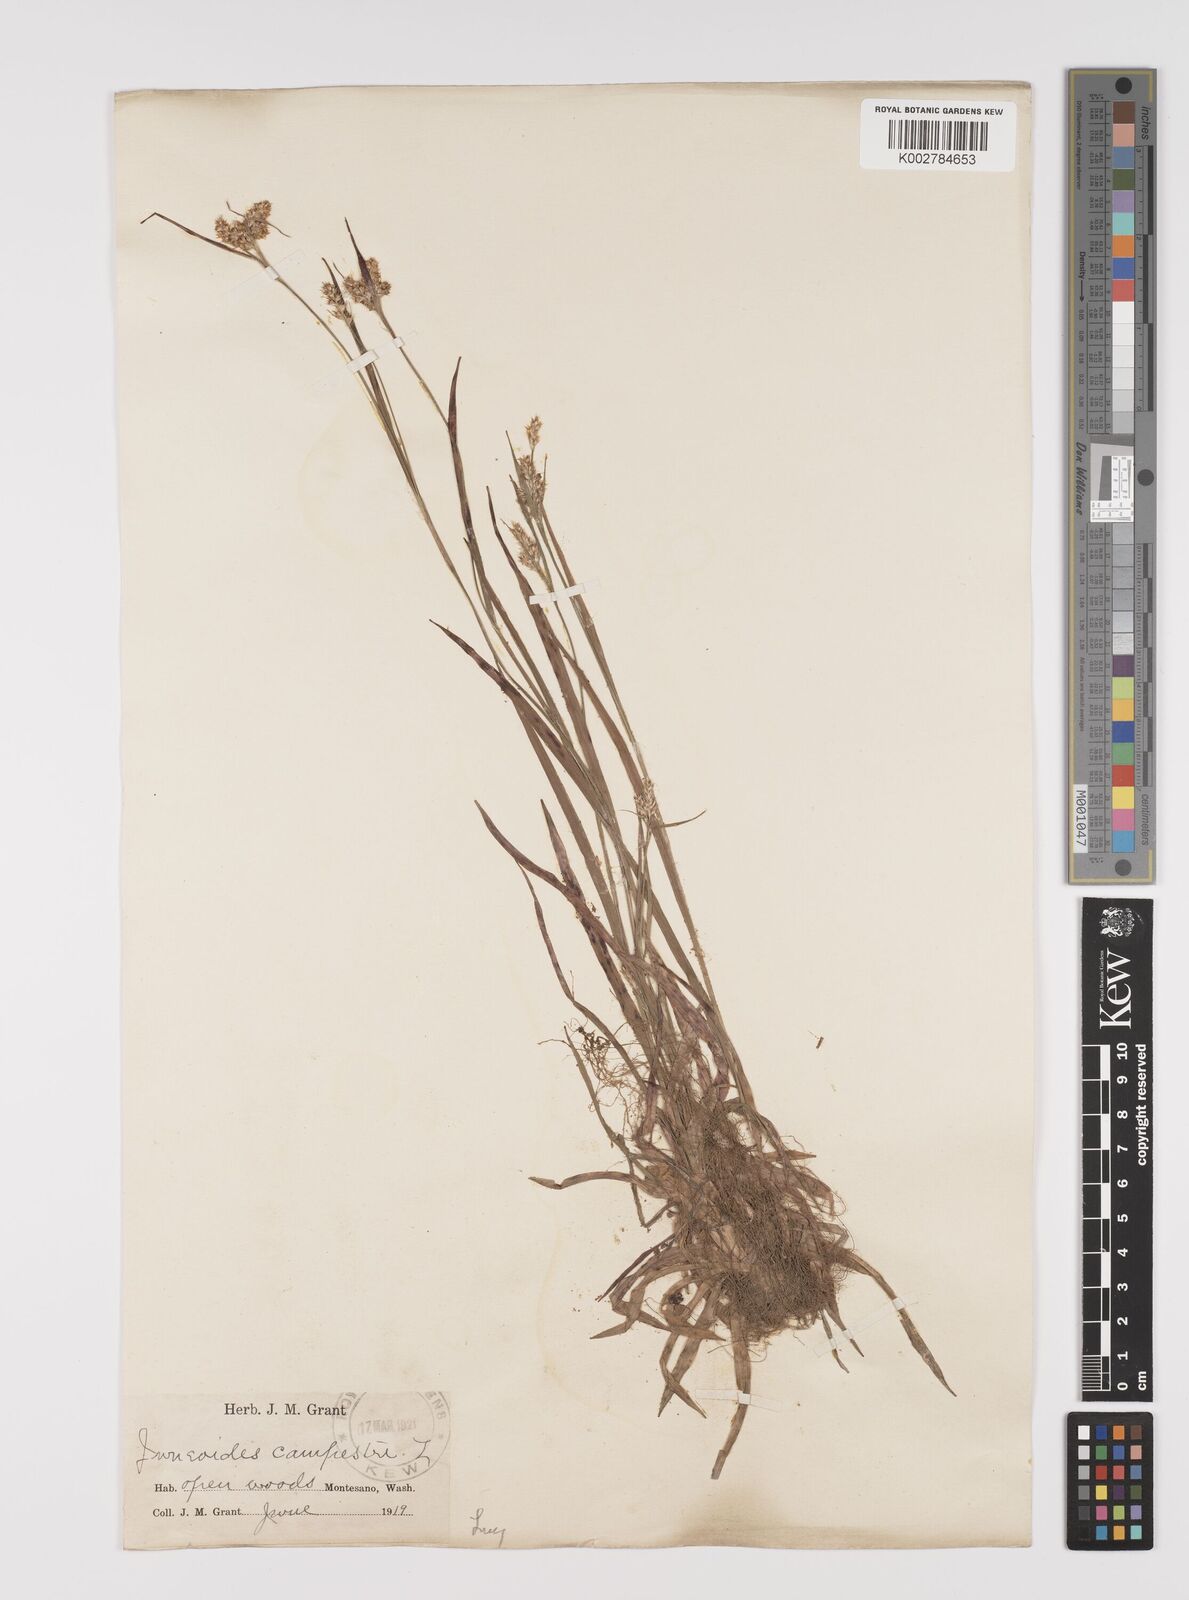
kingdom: Plantae
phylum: Tracheophyta
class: Liliopsida
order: Poales
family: Juncaceae
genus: Luzula
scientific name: Luzula campestris
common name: Field wood-rush
